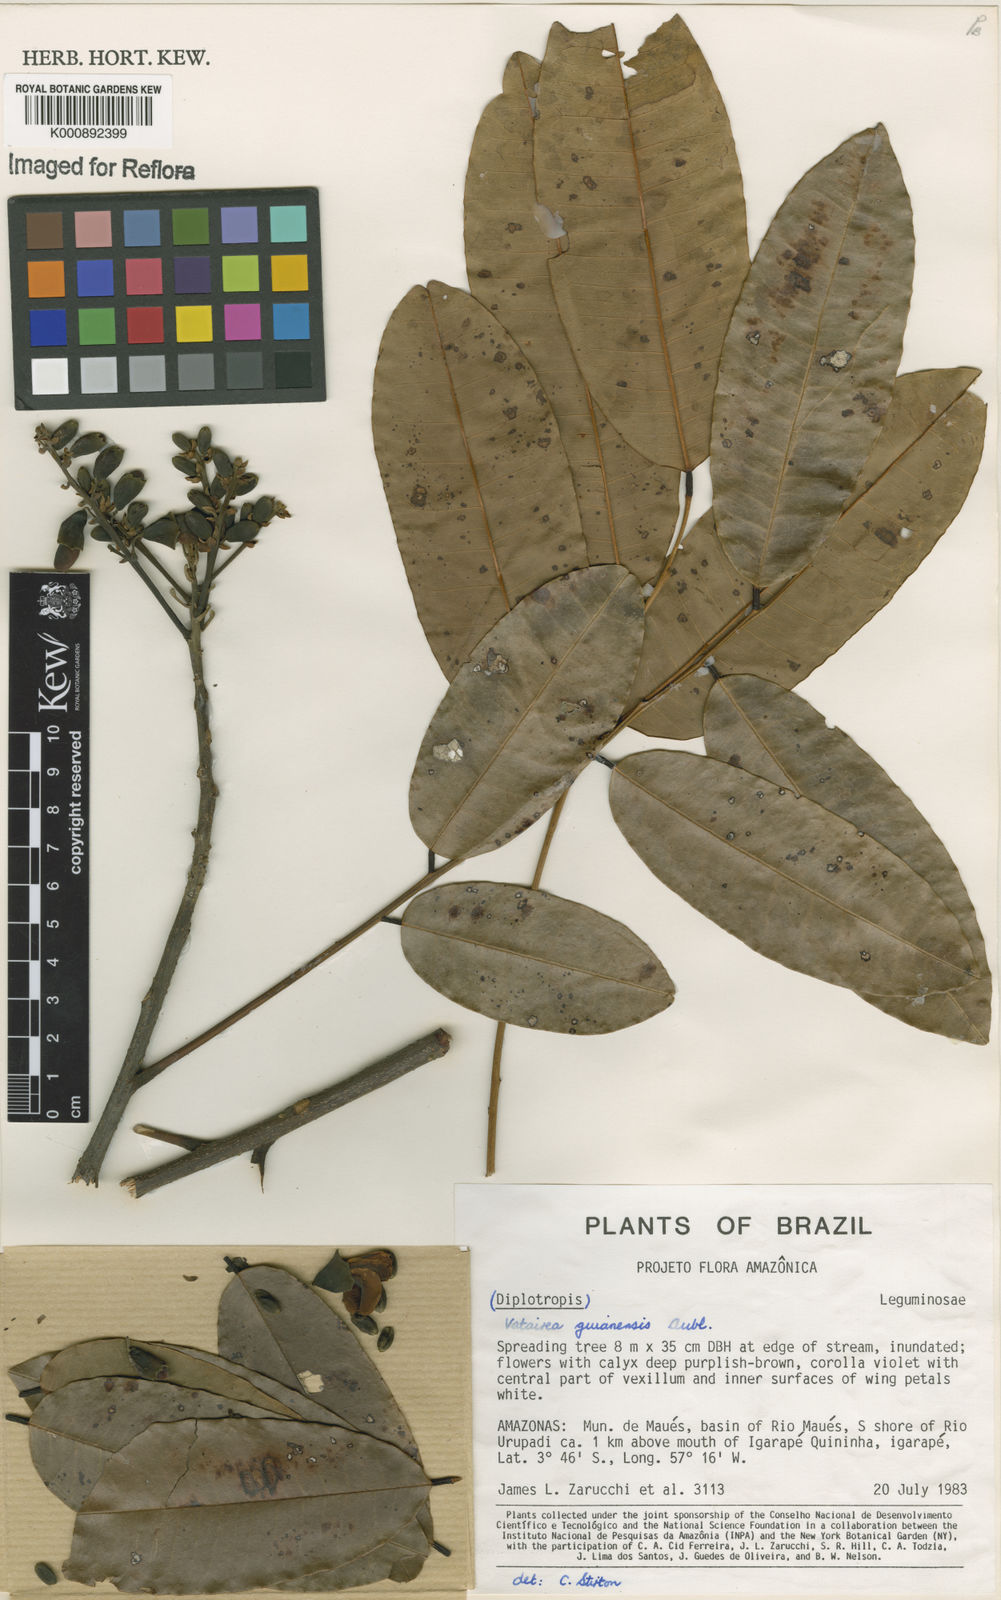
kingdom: Plantae
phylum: Tracheophyta
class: Magnoliopsida
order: Fabales
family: Fabaceae
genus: Vatairea
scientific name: Vatairea guianensis
